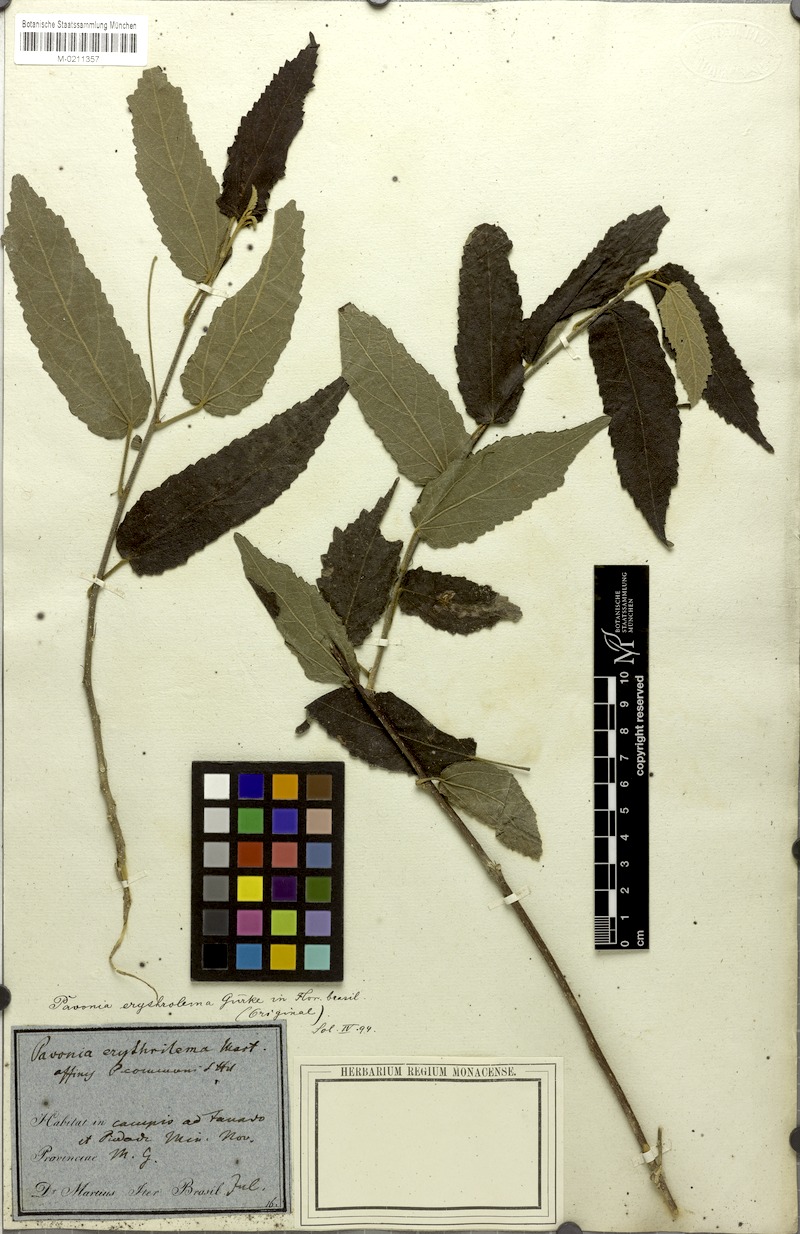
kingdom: Plantae
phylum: Tracheophyta
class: Magnoliopsida
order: Malvales
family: Malvaceae
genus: Pavonia
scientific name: Pavonia erythrolema
